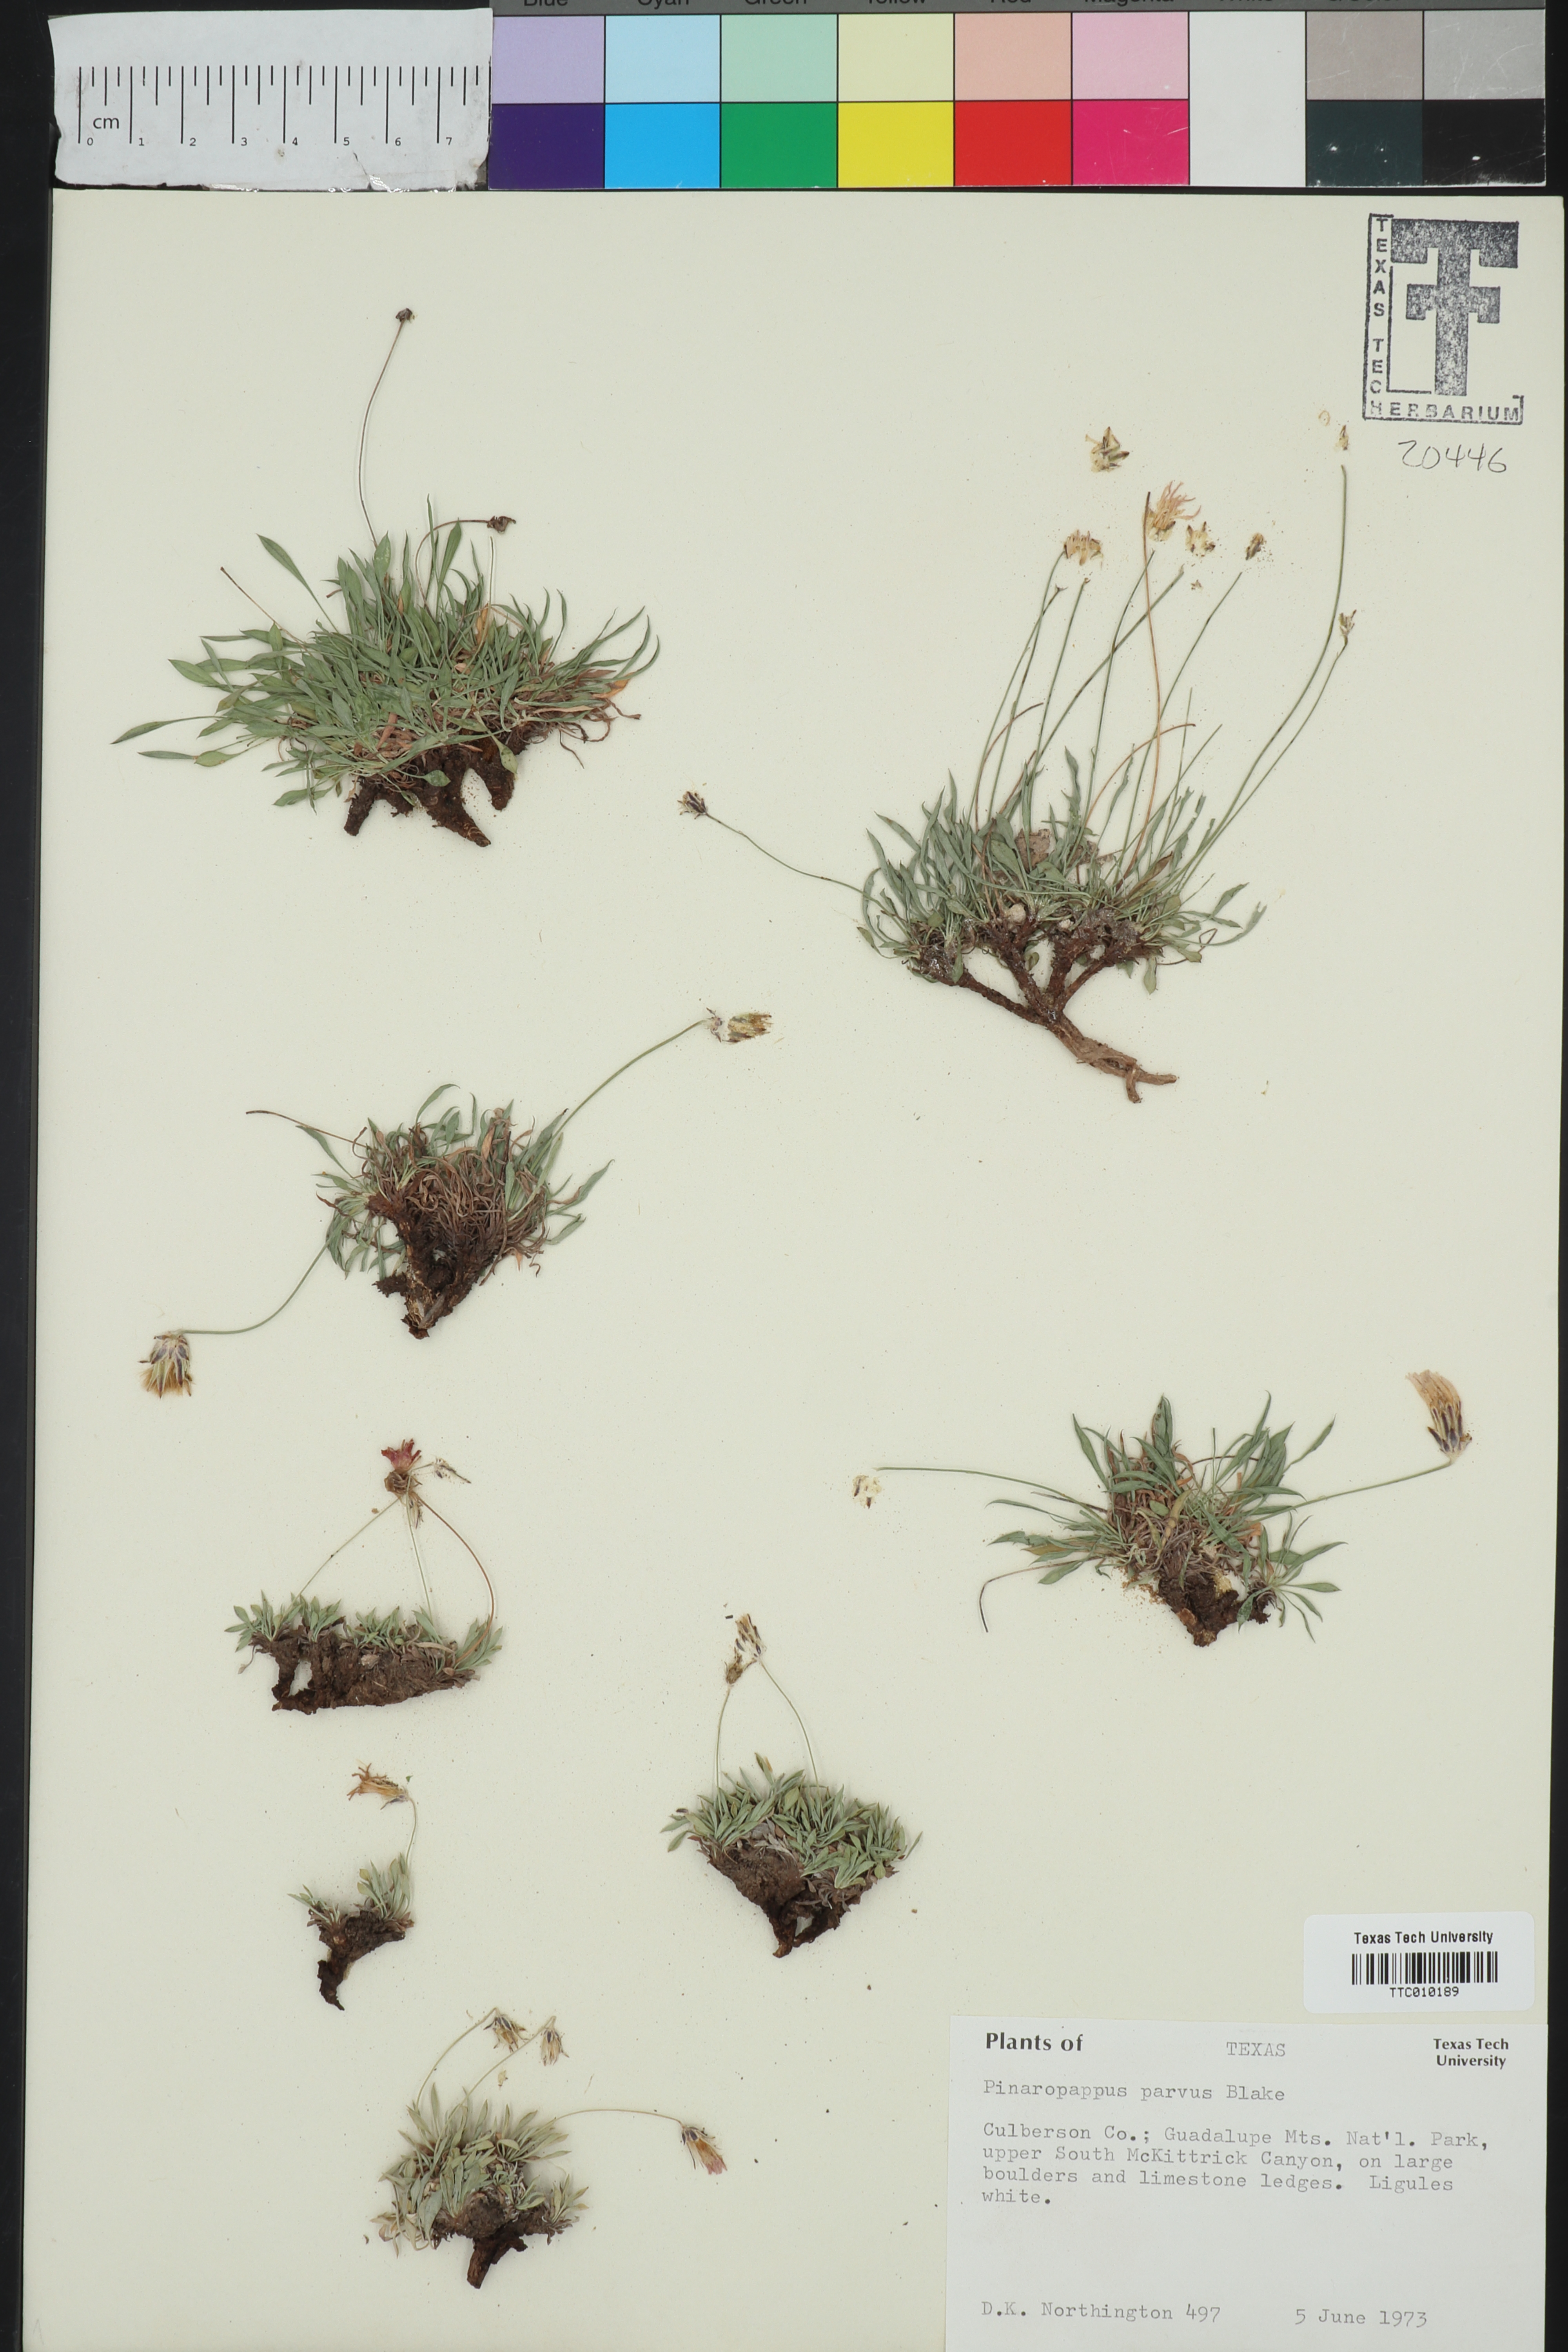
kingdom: Plantae
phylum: Tracheophyta
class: Magnoliopsida
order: Asterales
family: Asteraceae
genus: Pinaropappus
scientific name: Pinaropappus parvus
